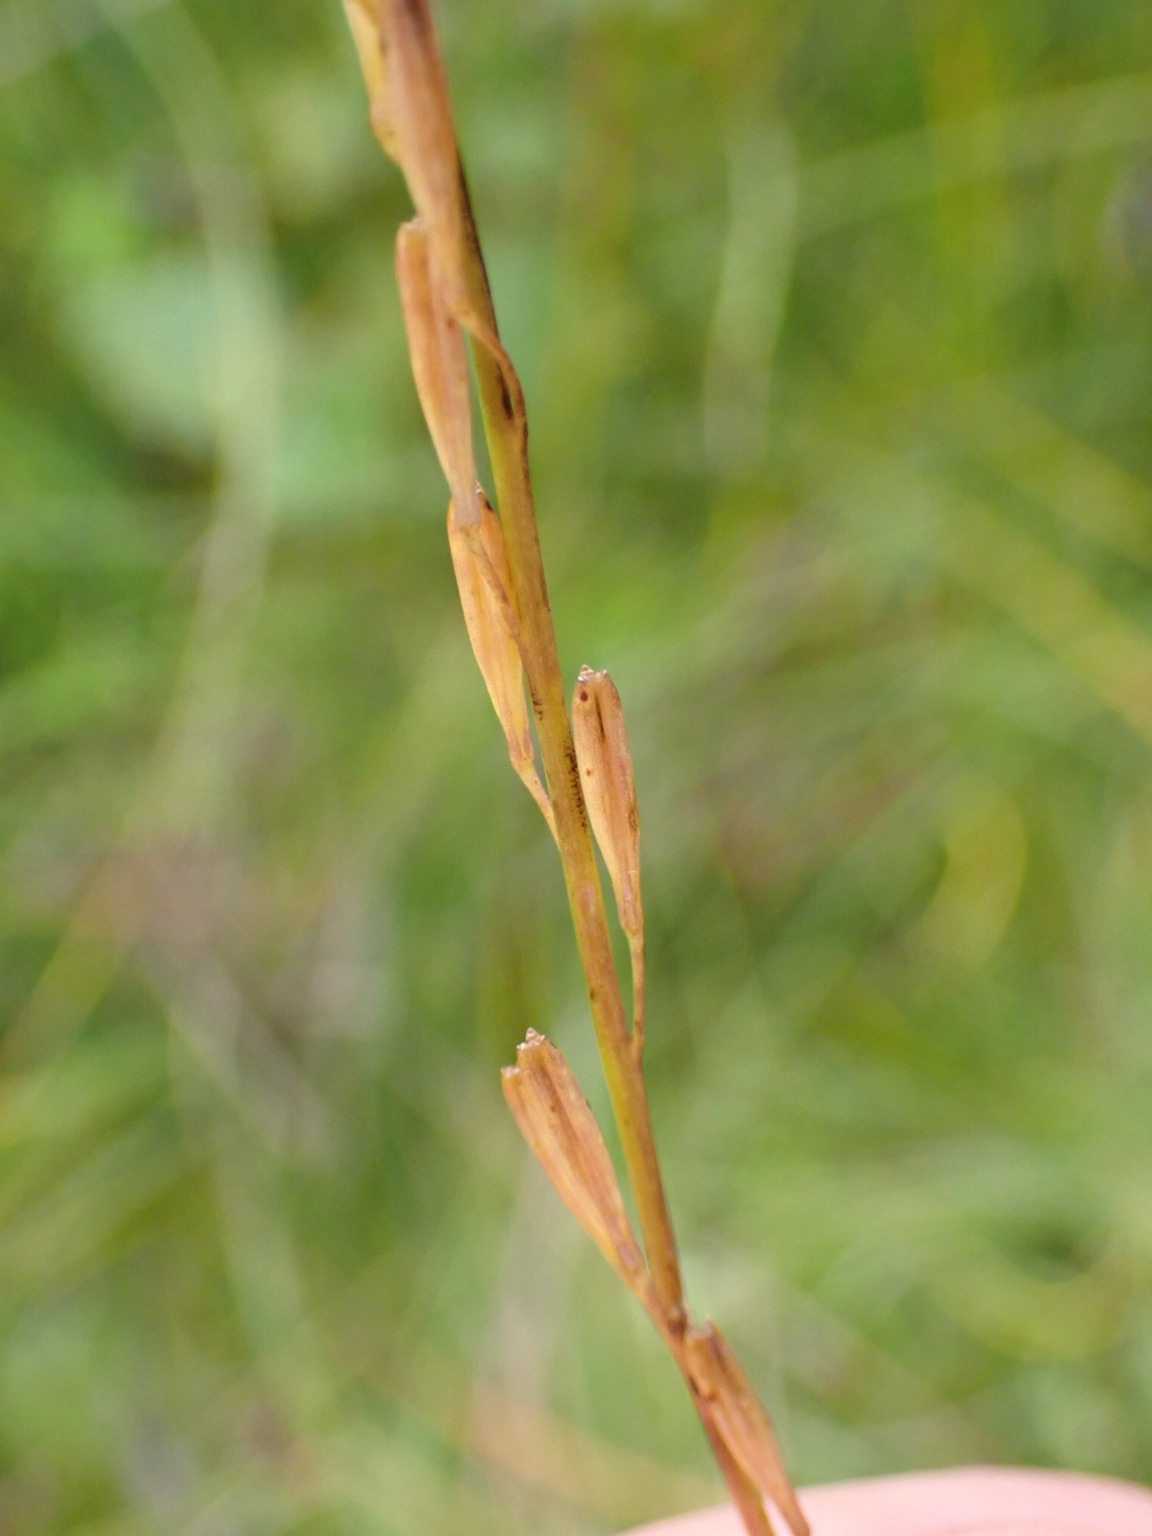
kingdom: Plantae
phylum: Tracheophyta
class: Liliopsida
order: Alismatales
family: Juncaginaceae
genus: Triglochin
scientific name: Triglochin palustris
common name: Kær-trehage
